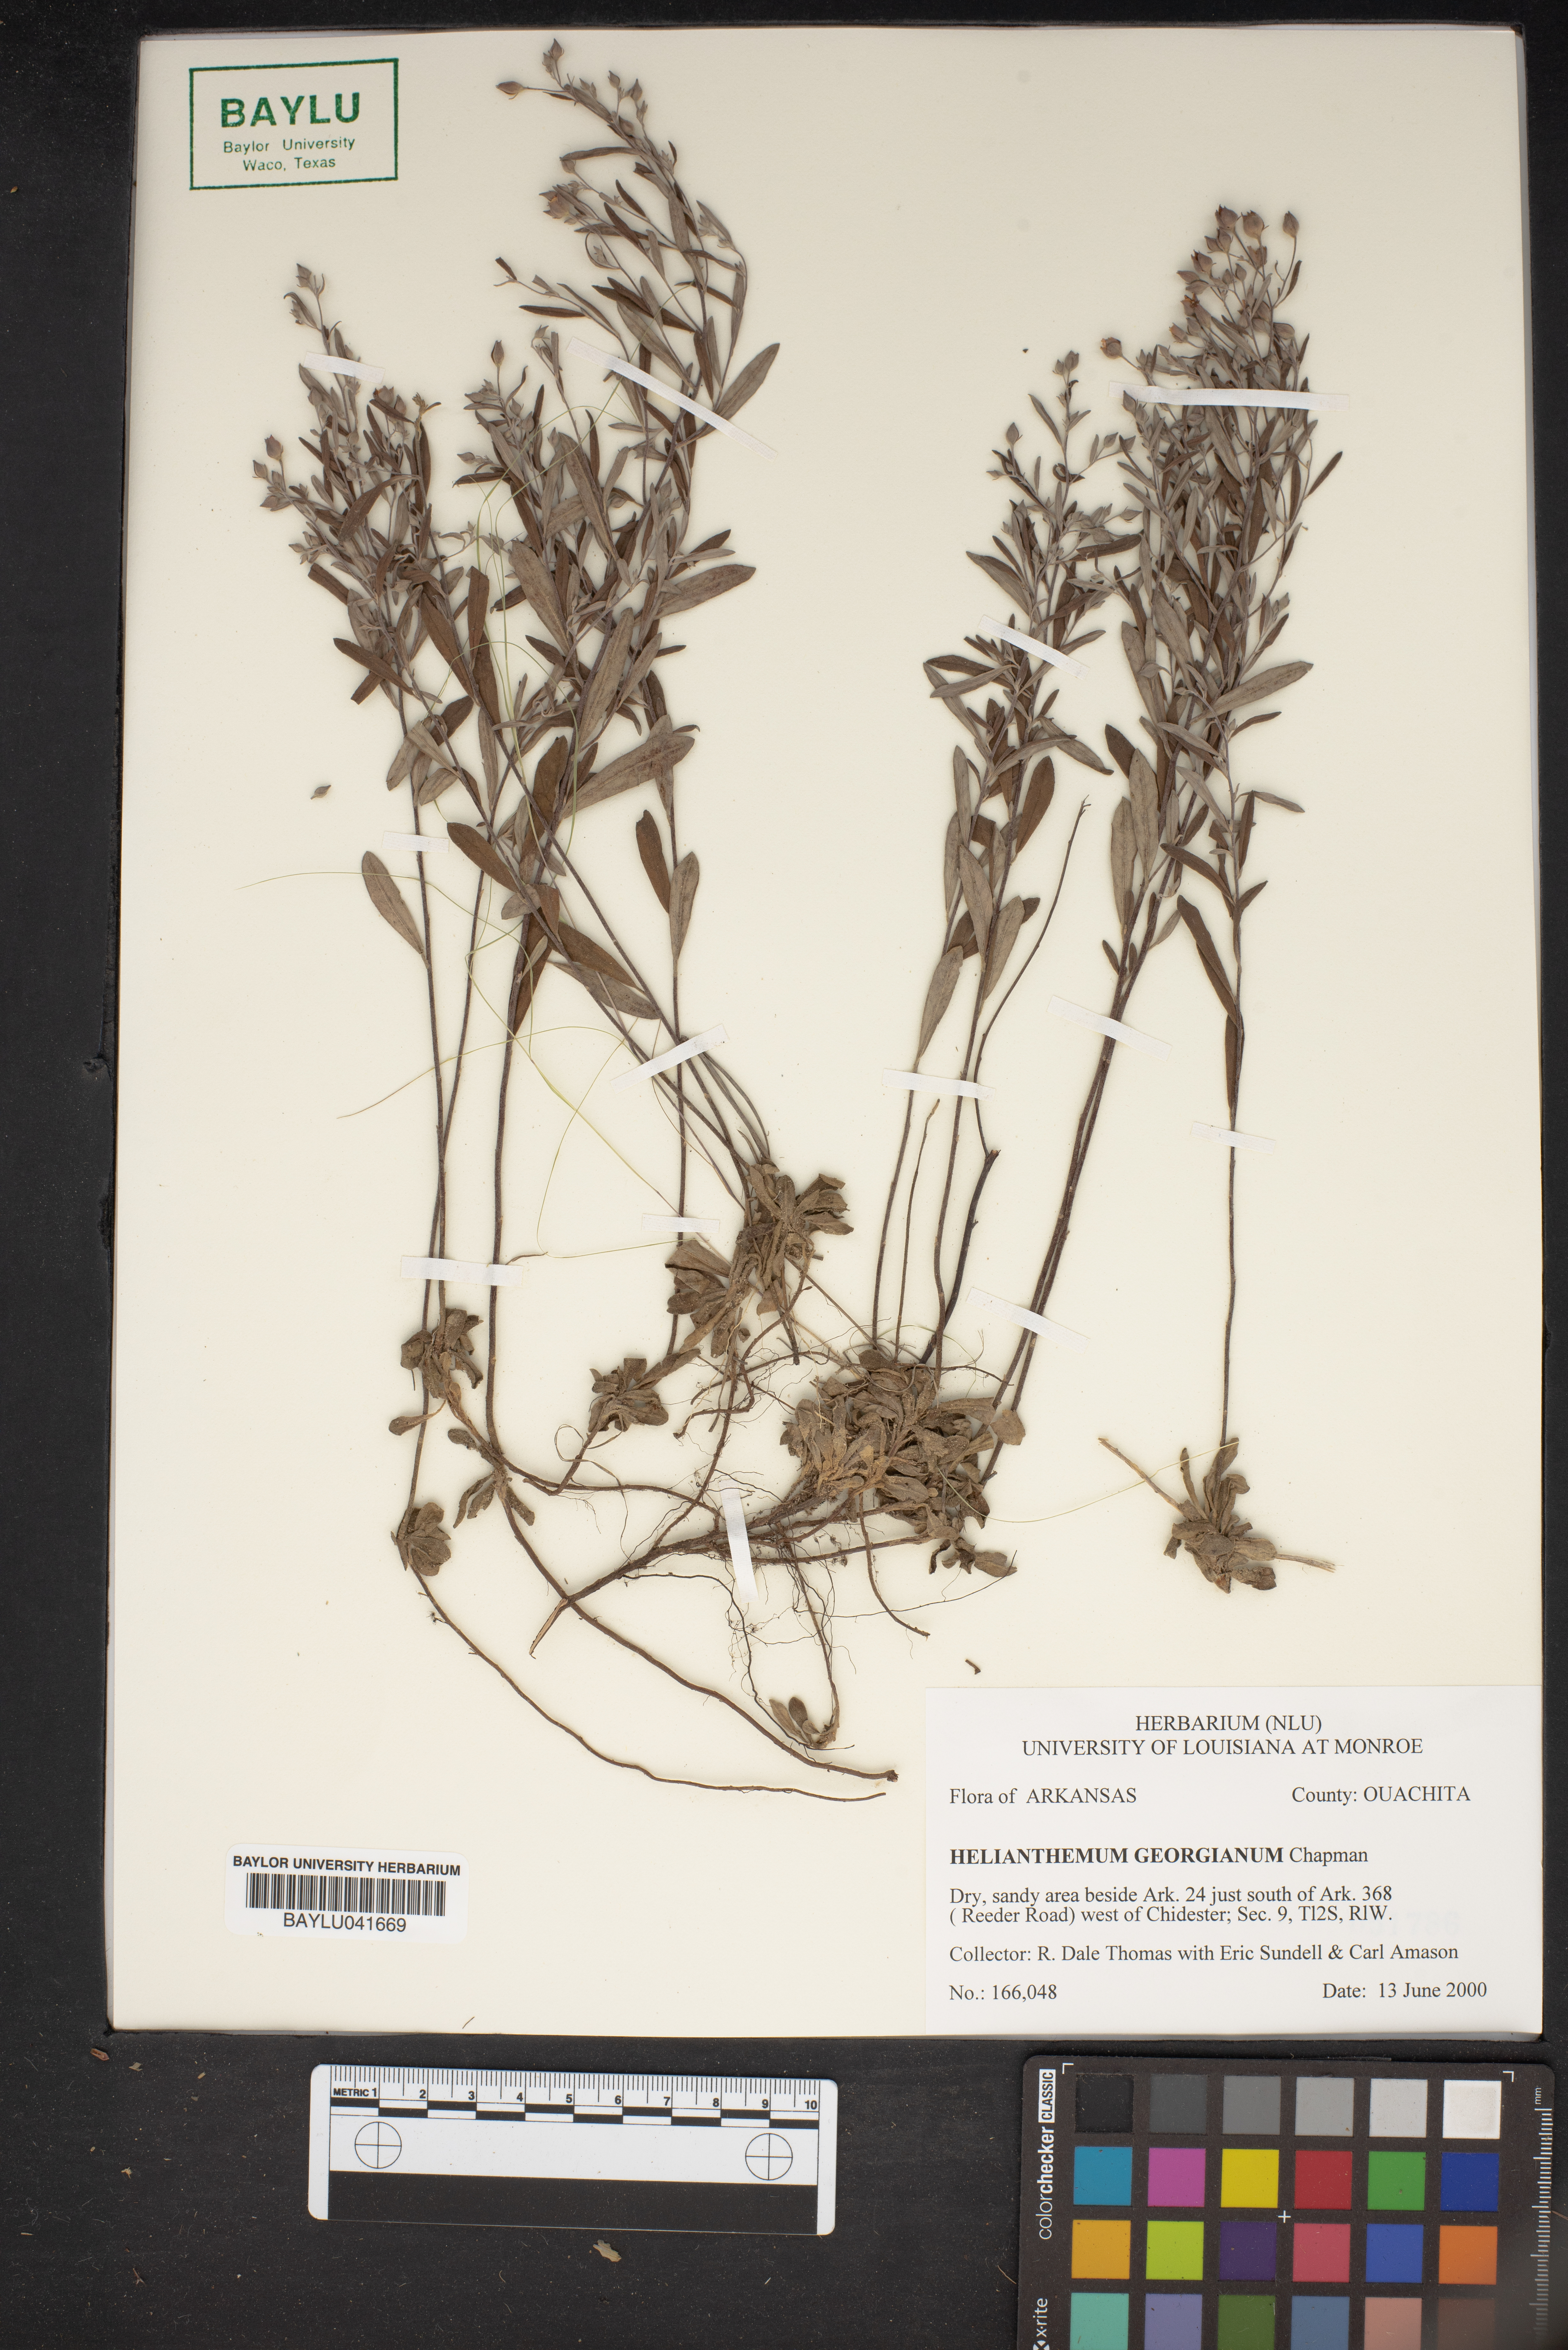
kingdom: Plantae
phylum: Tracheophyta
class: Magnoliopsida
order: Malvales
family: Cistaceae
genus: Crocanthemum
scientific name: Crocanthemum georgianum
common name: Georgia frostweed
